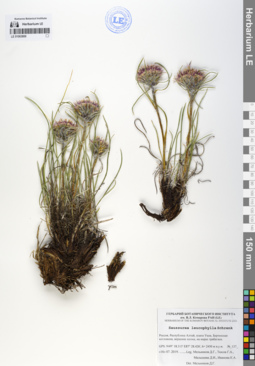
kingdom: Plantae
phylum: Tracheophyta
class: Magnoliopsida
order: Asterales
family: Asteraceae
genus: Saussurea
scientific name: Saussurea leucophylla
